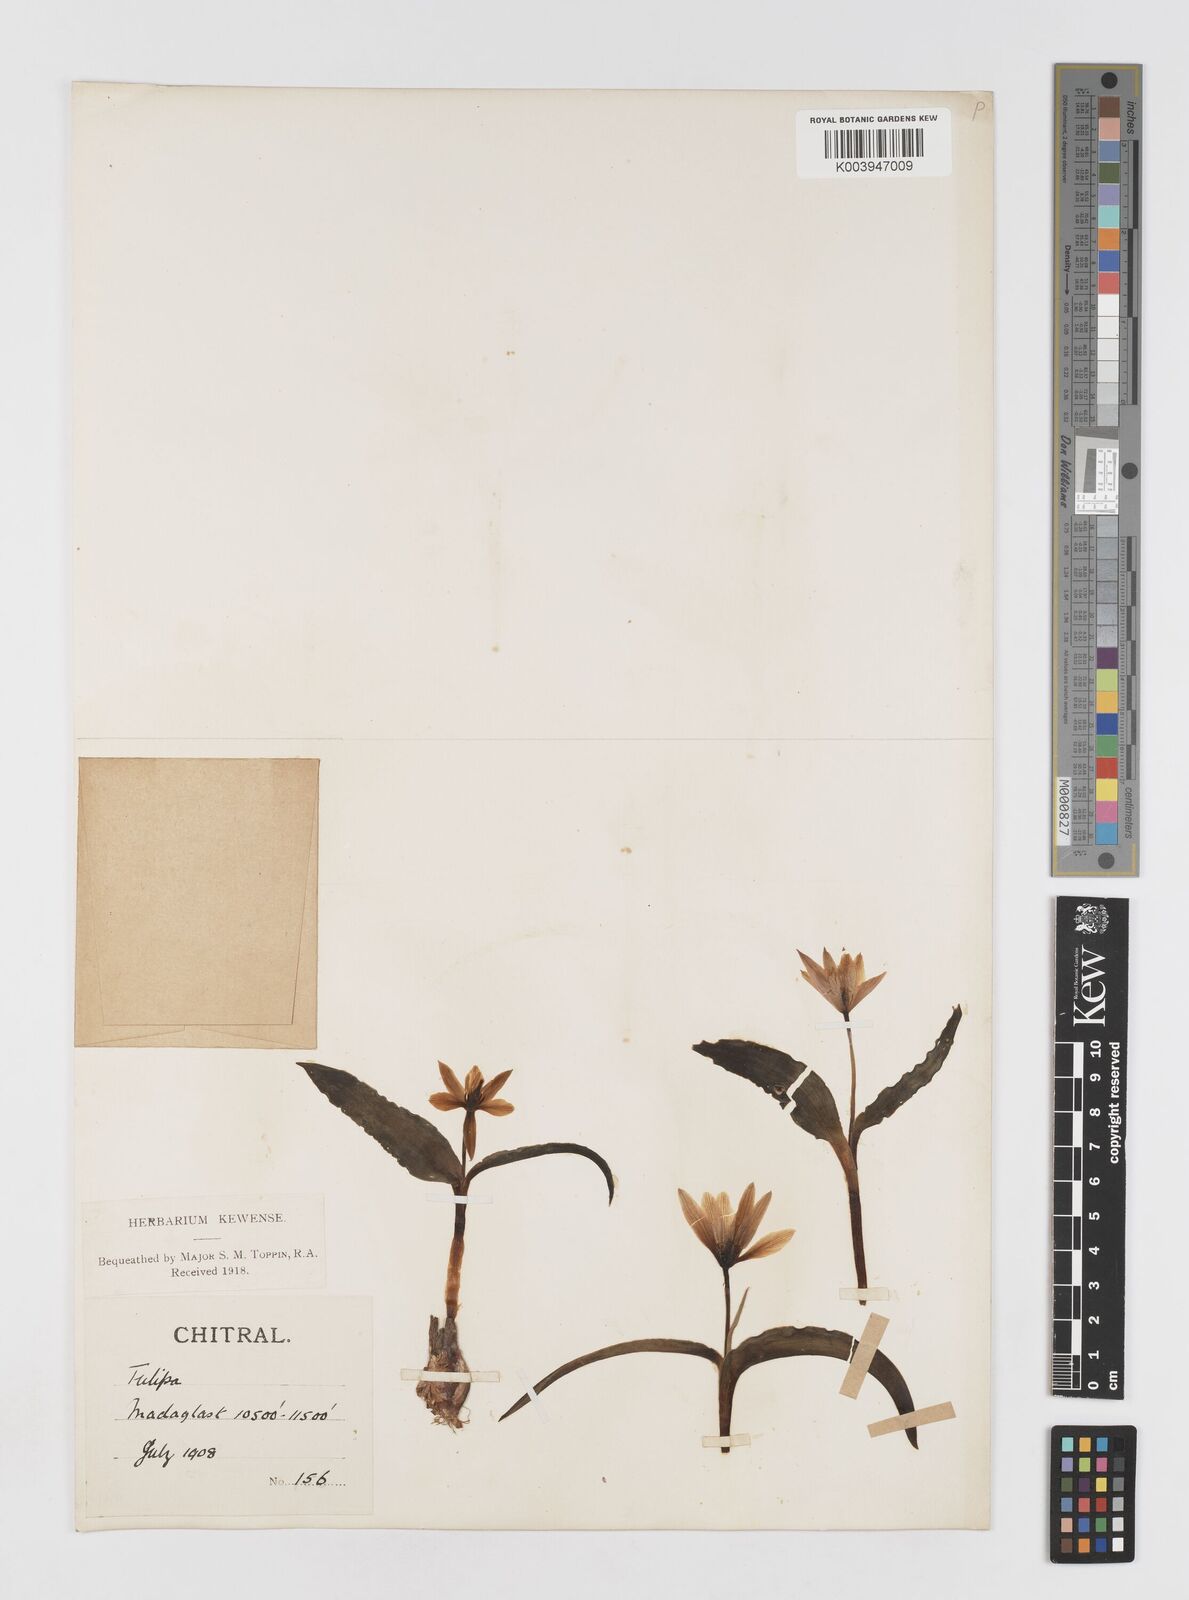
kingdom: Plantae
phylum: Tracheophyta
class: Liliopsida
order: Liliales
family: Liliaceae
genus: Tulipa
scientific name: Tulipa clusiana
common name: Lady tulip
